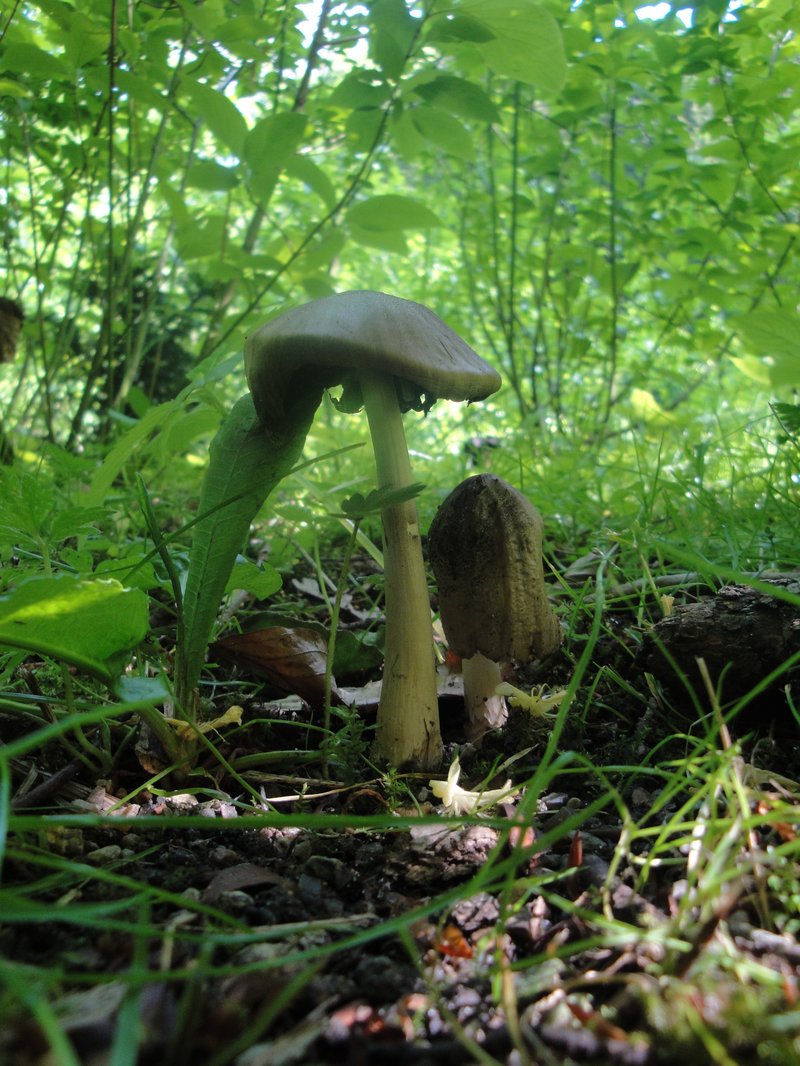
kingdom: Fungi
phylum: Basidiomycota
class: Agaricomycetes
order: Agaricales
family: Psathyrellaceae
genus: Coprinopsis
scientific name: Coprinopsis atramentaria
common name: almindelig blækhat
